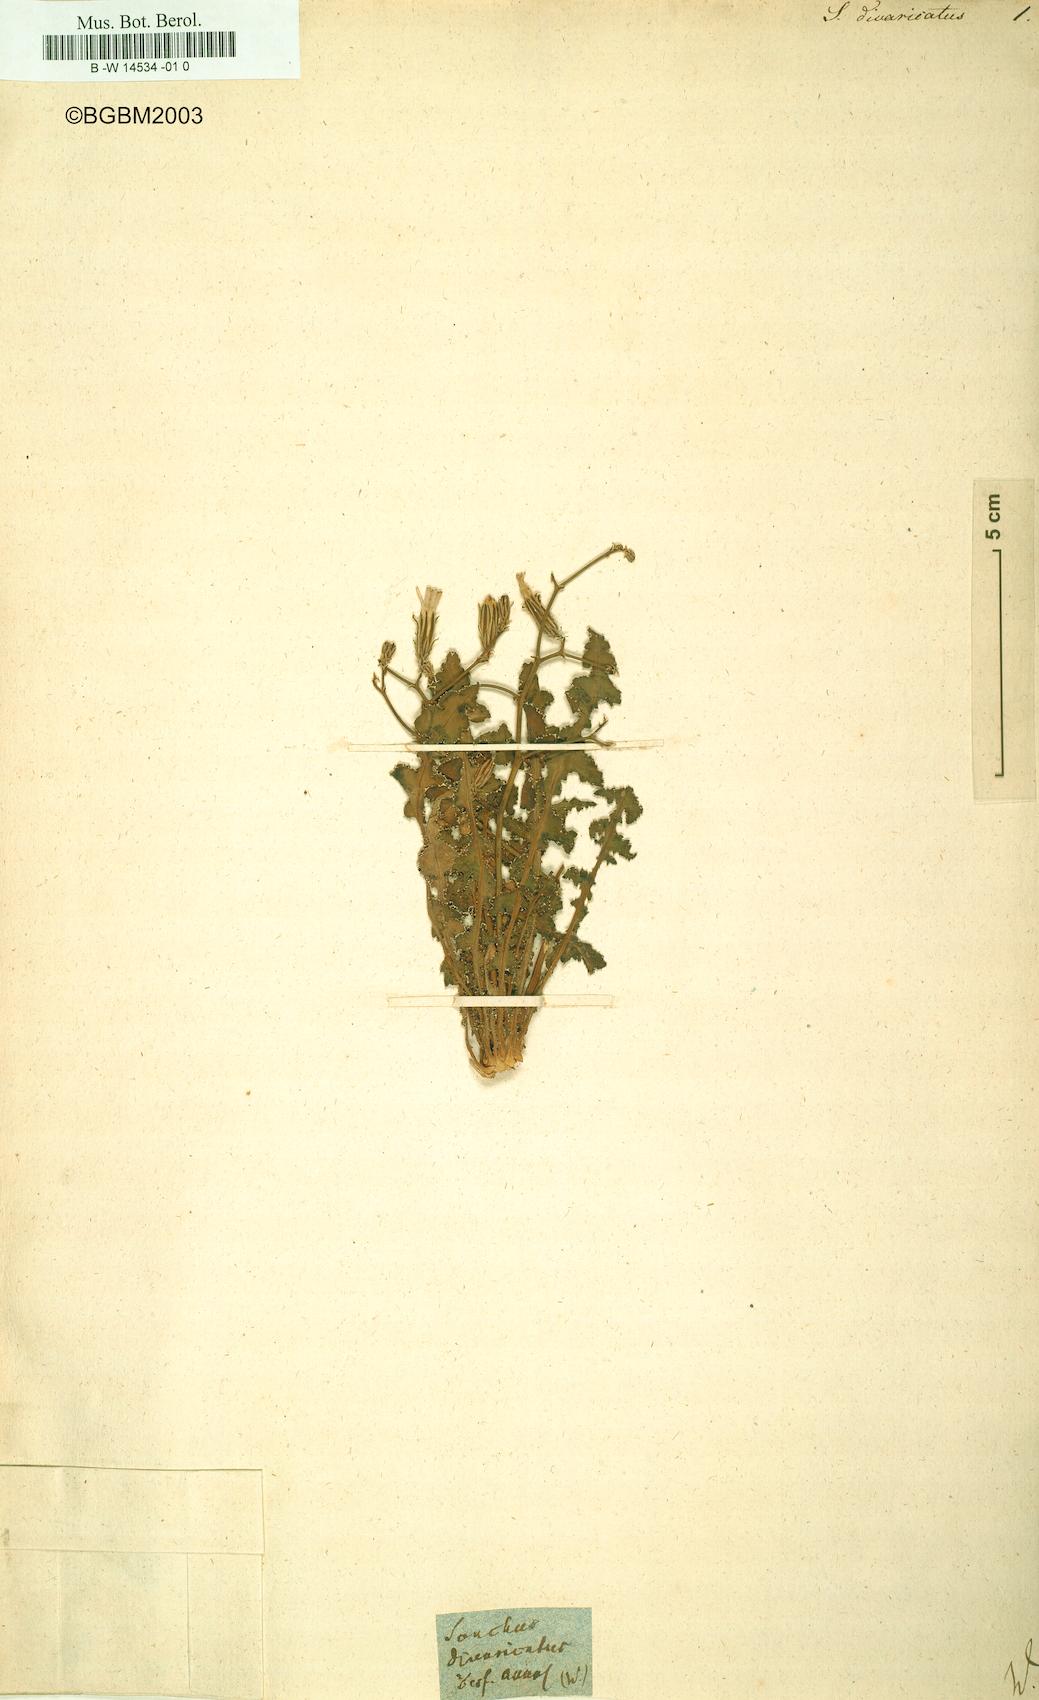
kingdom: Plantae
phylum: Tracheophyta
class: Magnoliopsida
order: Asterales
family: Asteraceae
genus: Sonchus
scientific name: Sonchus divaricatus
